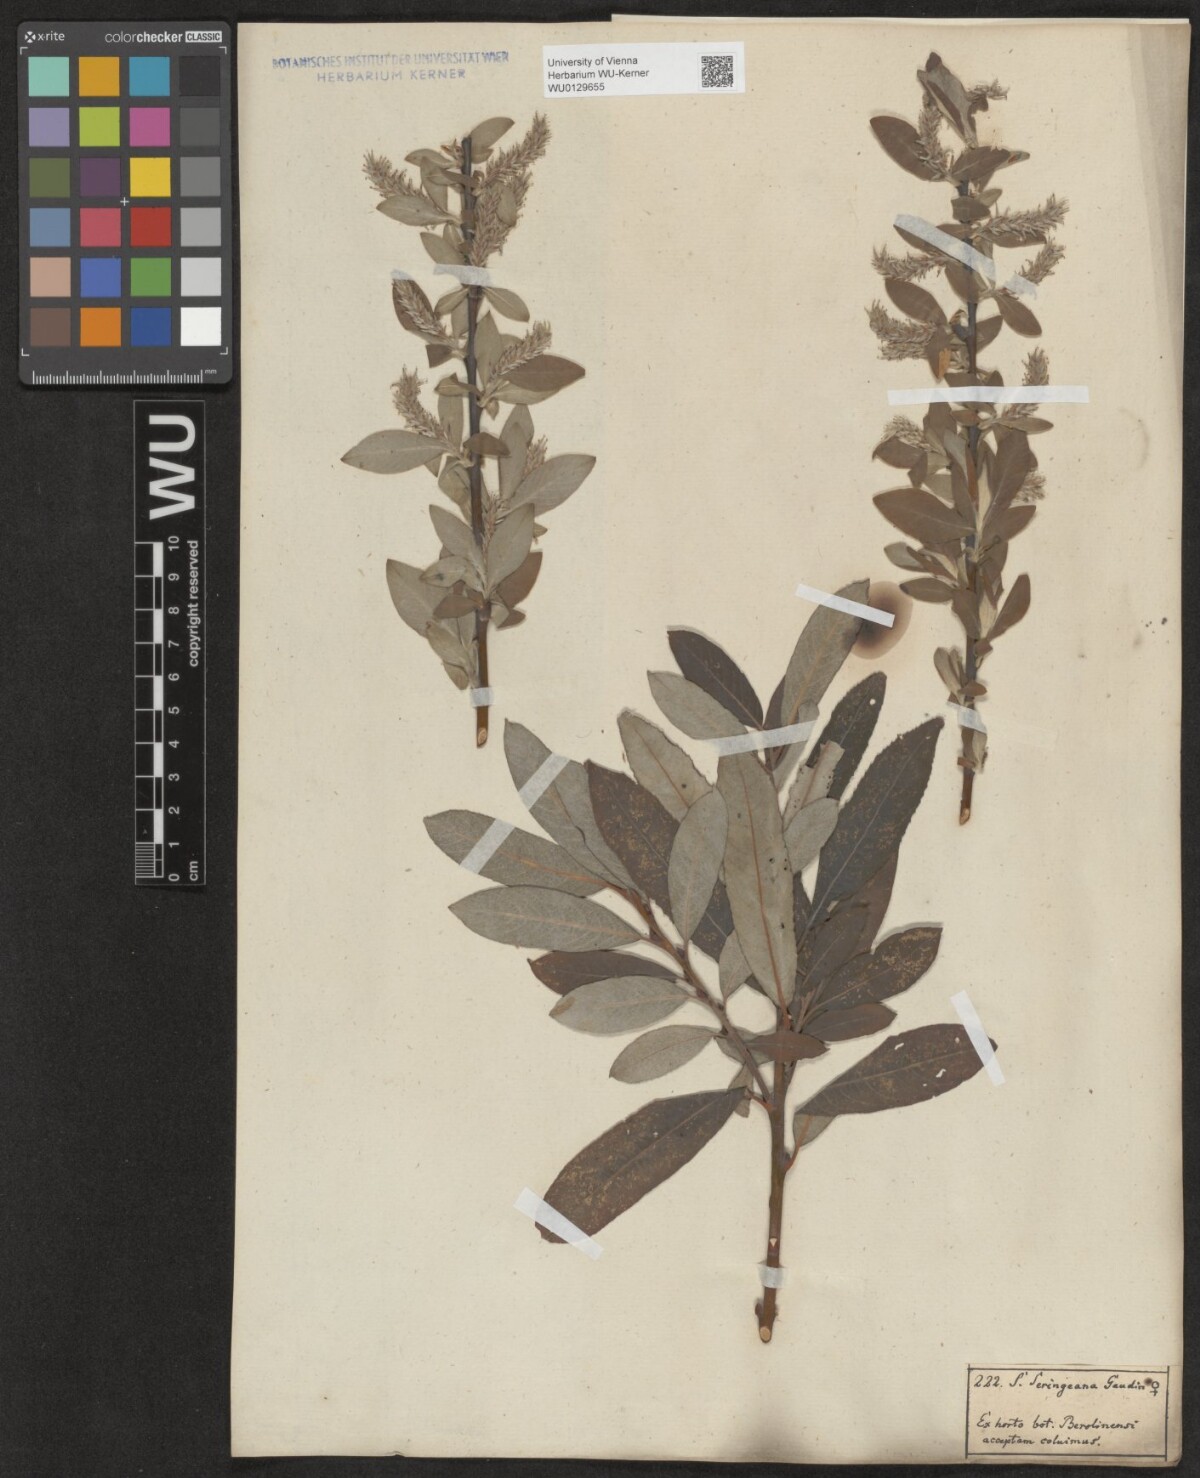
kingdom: Plantae
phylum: Tracheophyta
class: Magnoliopsida
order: Malpighiales
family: Salicaceae
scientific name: Salicaceae
